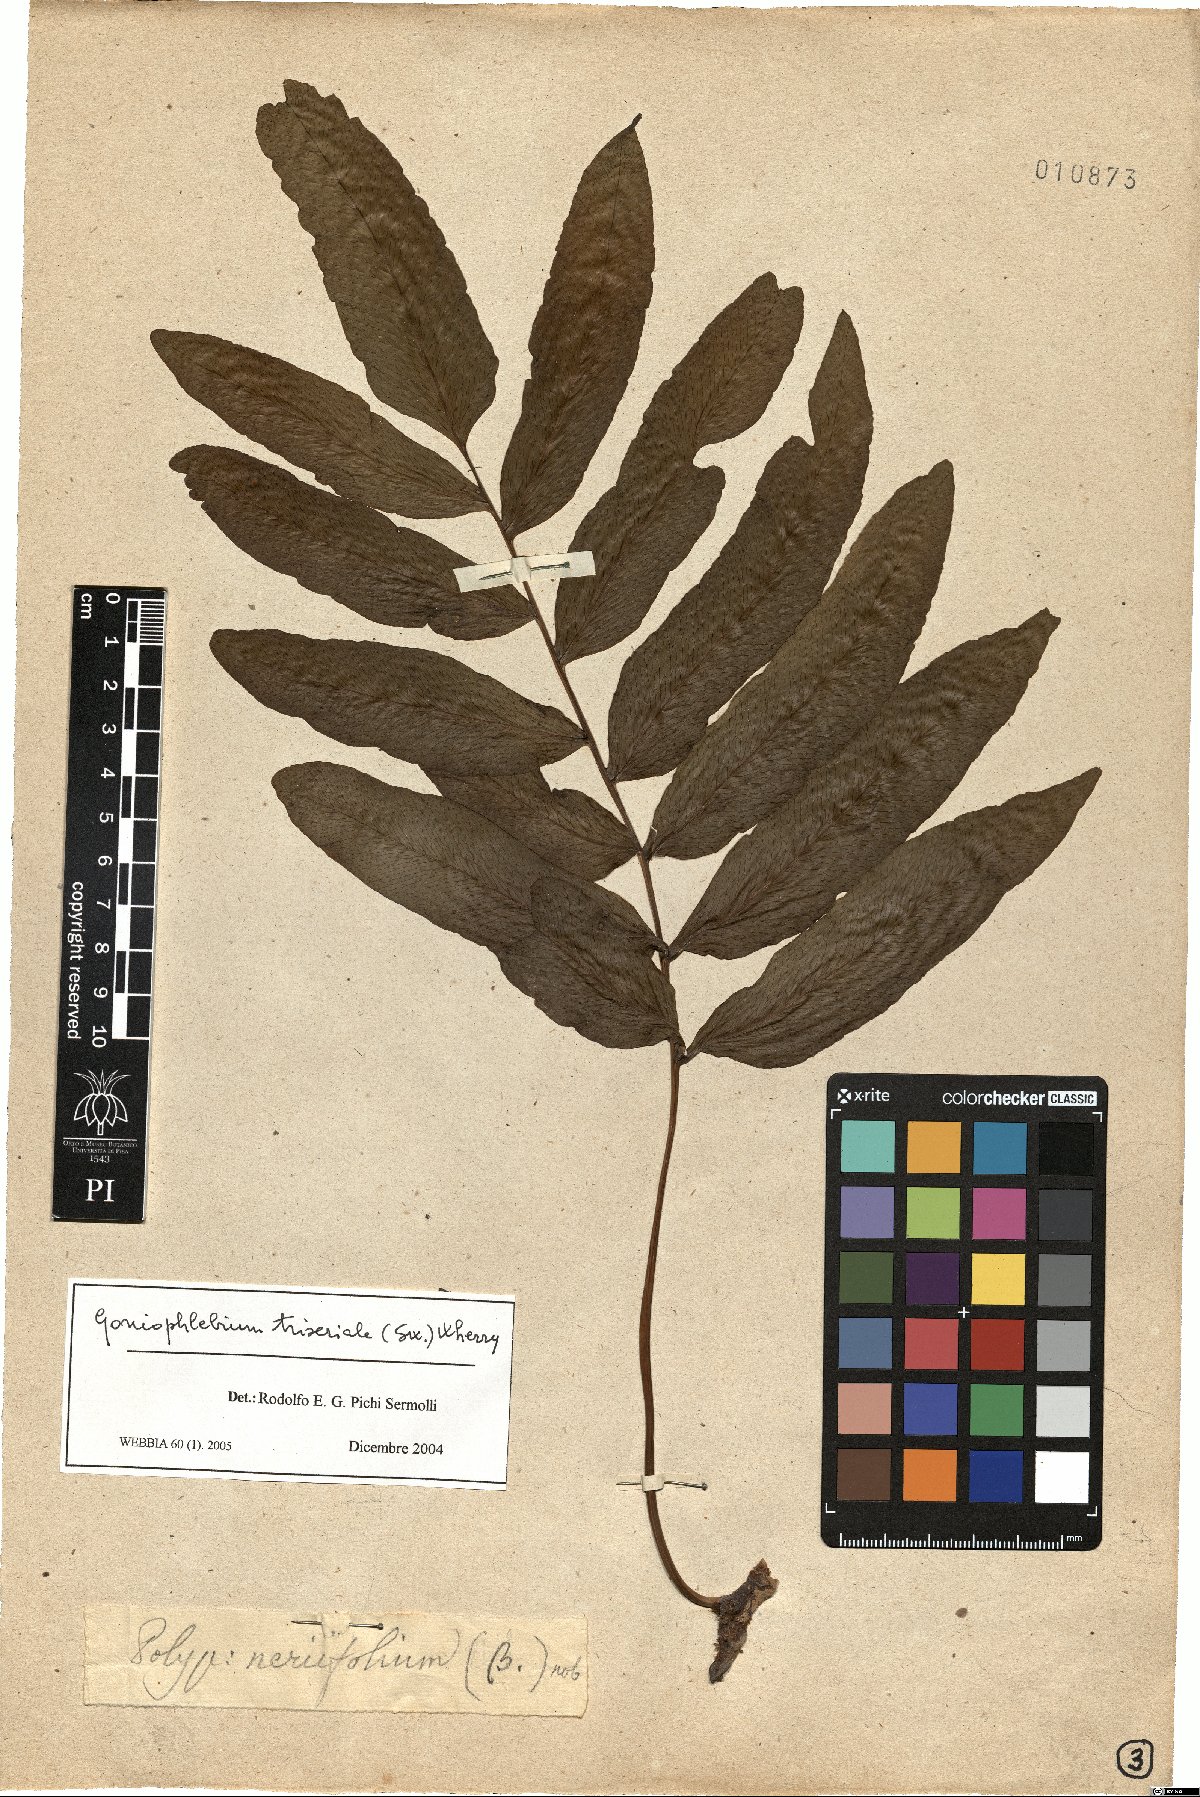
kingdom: Plantae
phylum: Tracheophyta
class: Polypodiopsida
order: Polypodiales
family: Polypodiaceae
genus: Serpocaulon
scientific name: Serpocaulon triseriale
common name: Angle-vein fern
